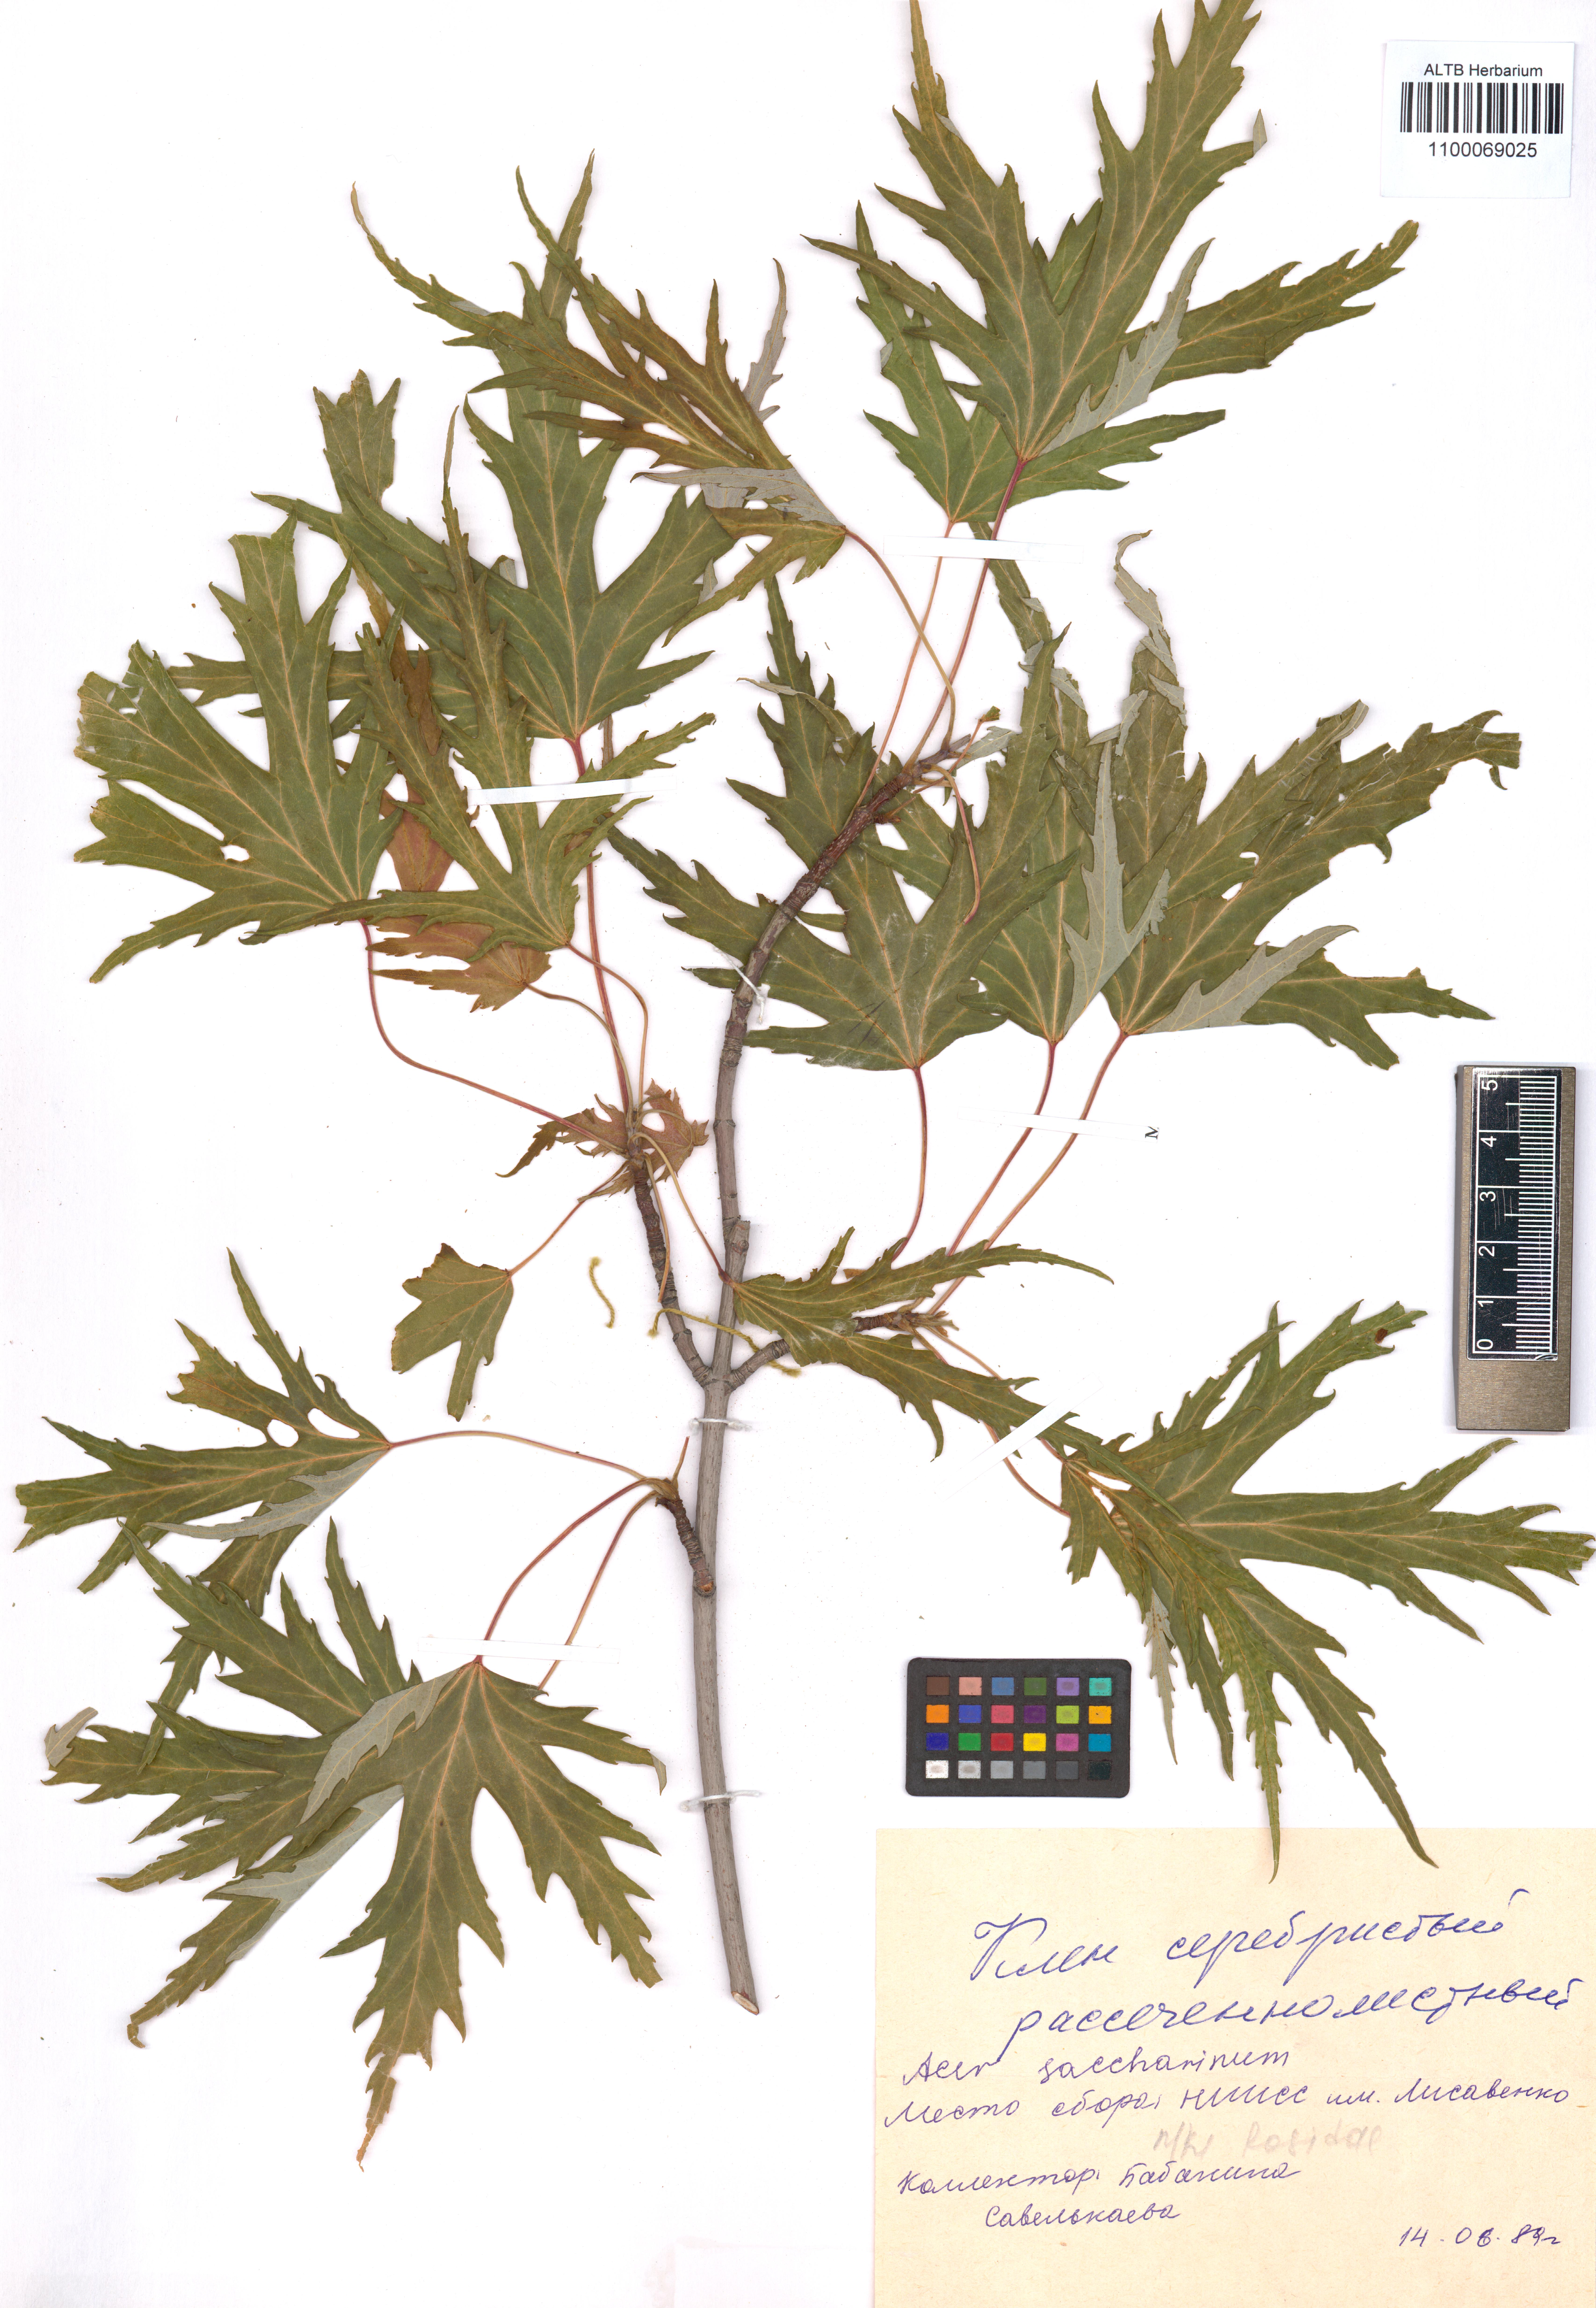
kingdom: Plantae
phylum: Tracheophyta
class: Magnoliopsida
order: Sapindales
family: Sapindaceae
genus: Acer
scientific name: Acer saccharinum
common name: Silver maple
